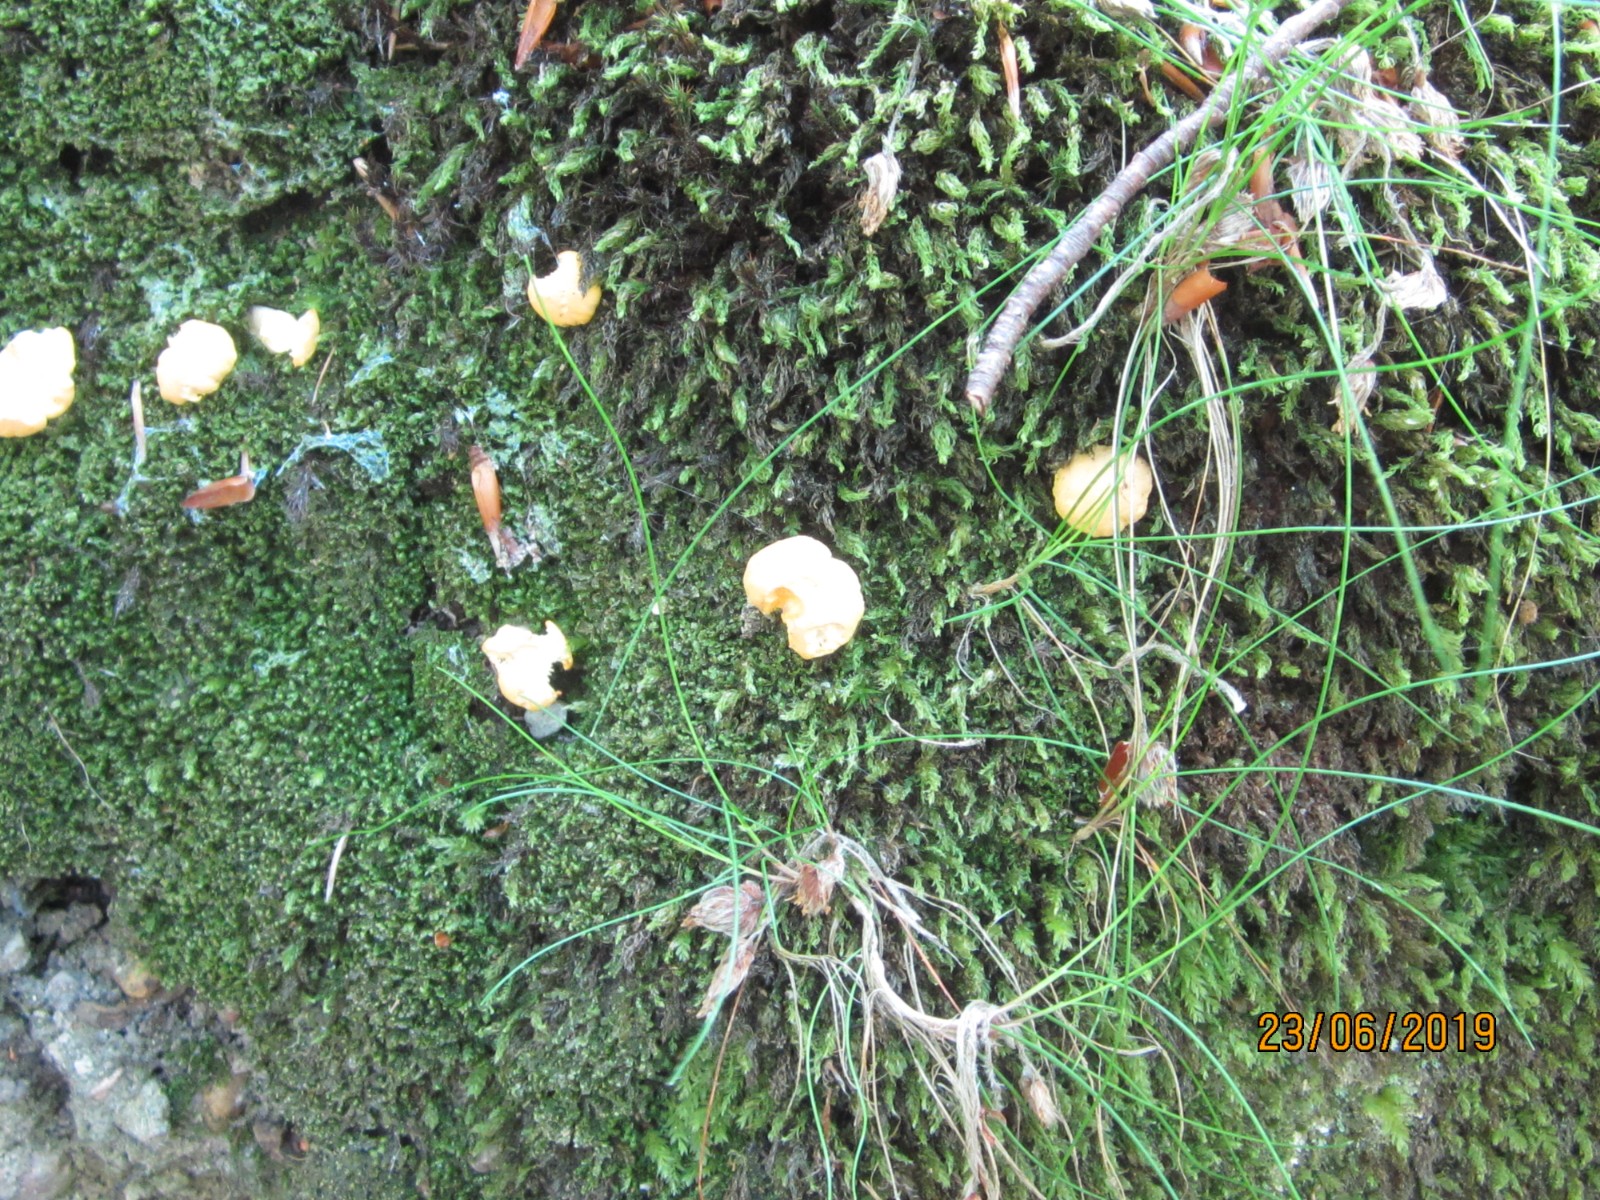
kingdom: Fungi
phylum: Basidiomycota
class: Agaricomycetes
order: Cantharellales
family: Hydnaceae
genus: Cantharellus
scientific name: Cantharellus cibarius
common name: almindelig kantarel
